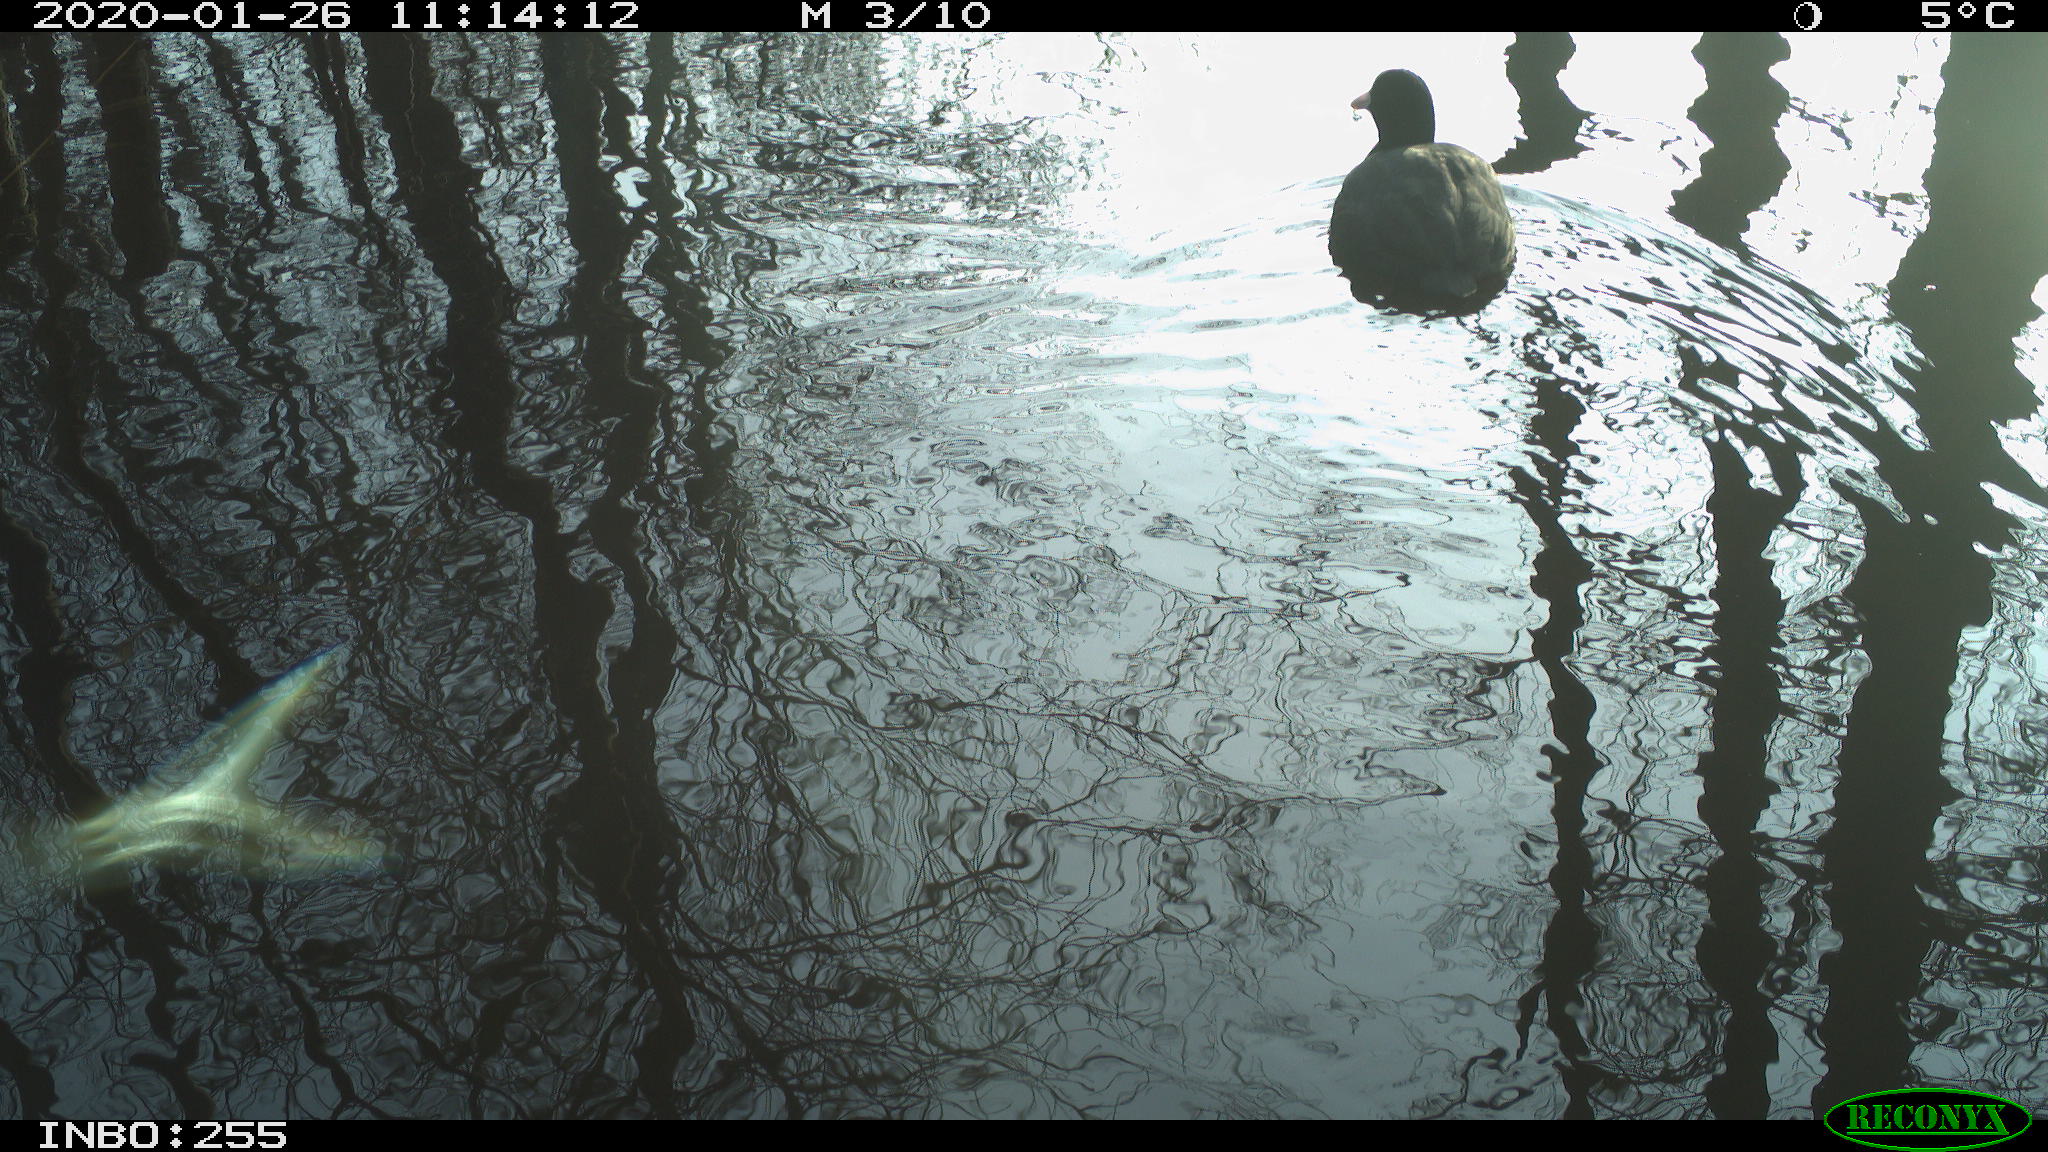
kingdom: Animalia
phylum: Chordata
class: Aves
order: Gruiformes
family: Rallidae
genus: Fulica
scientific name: Fulica atra
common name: Eurasian coot
